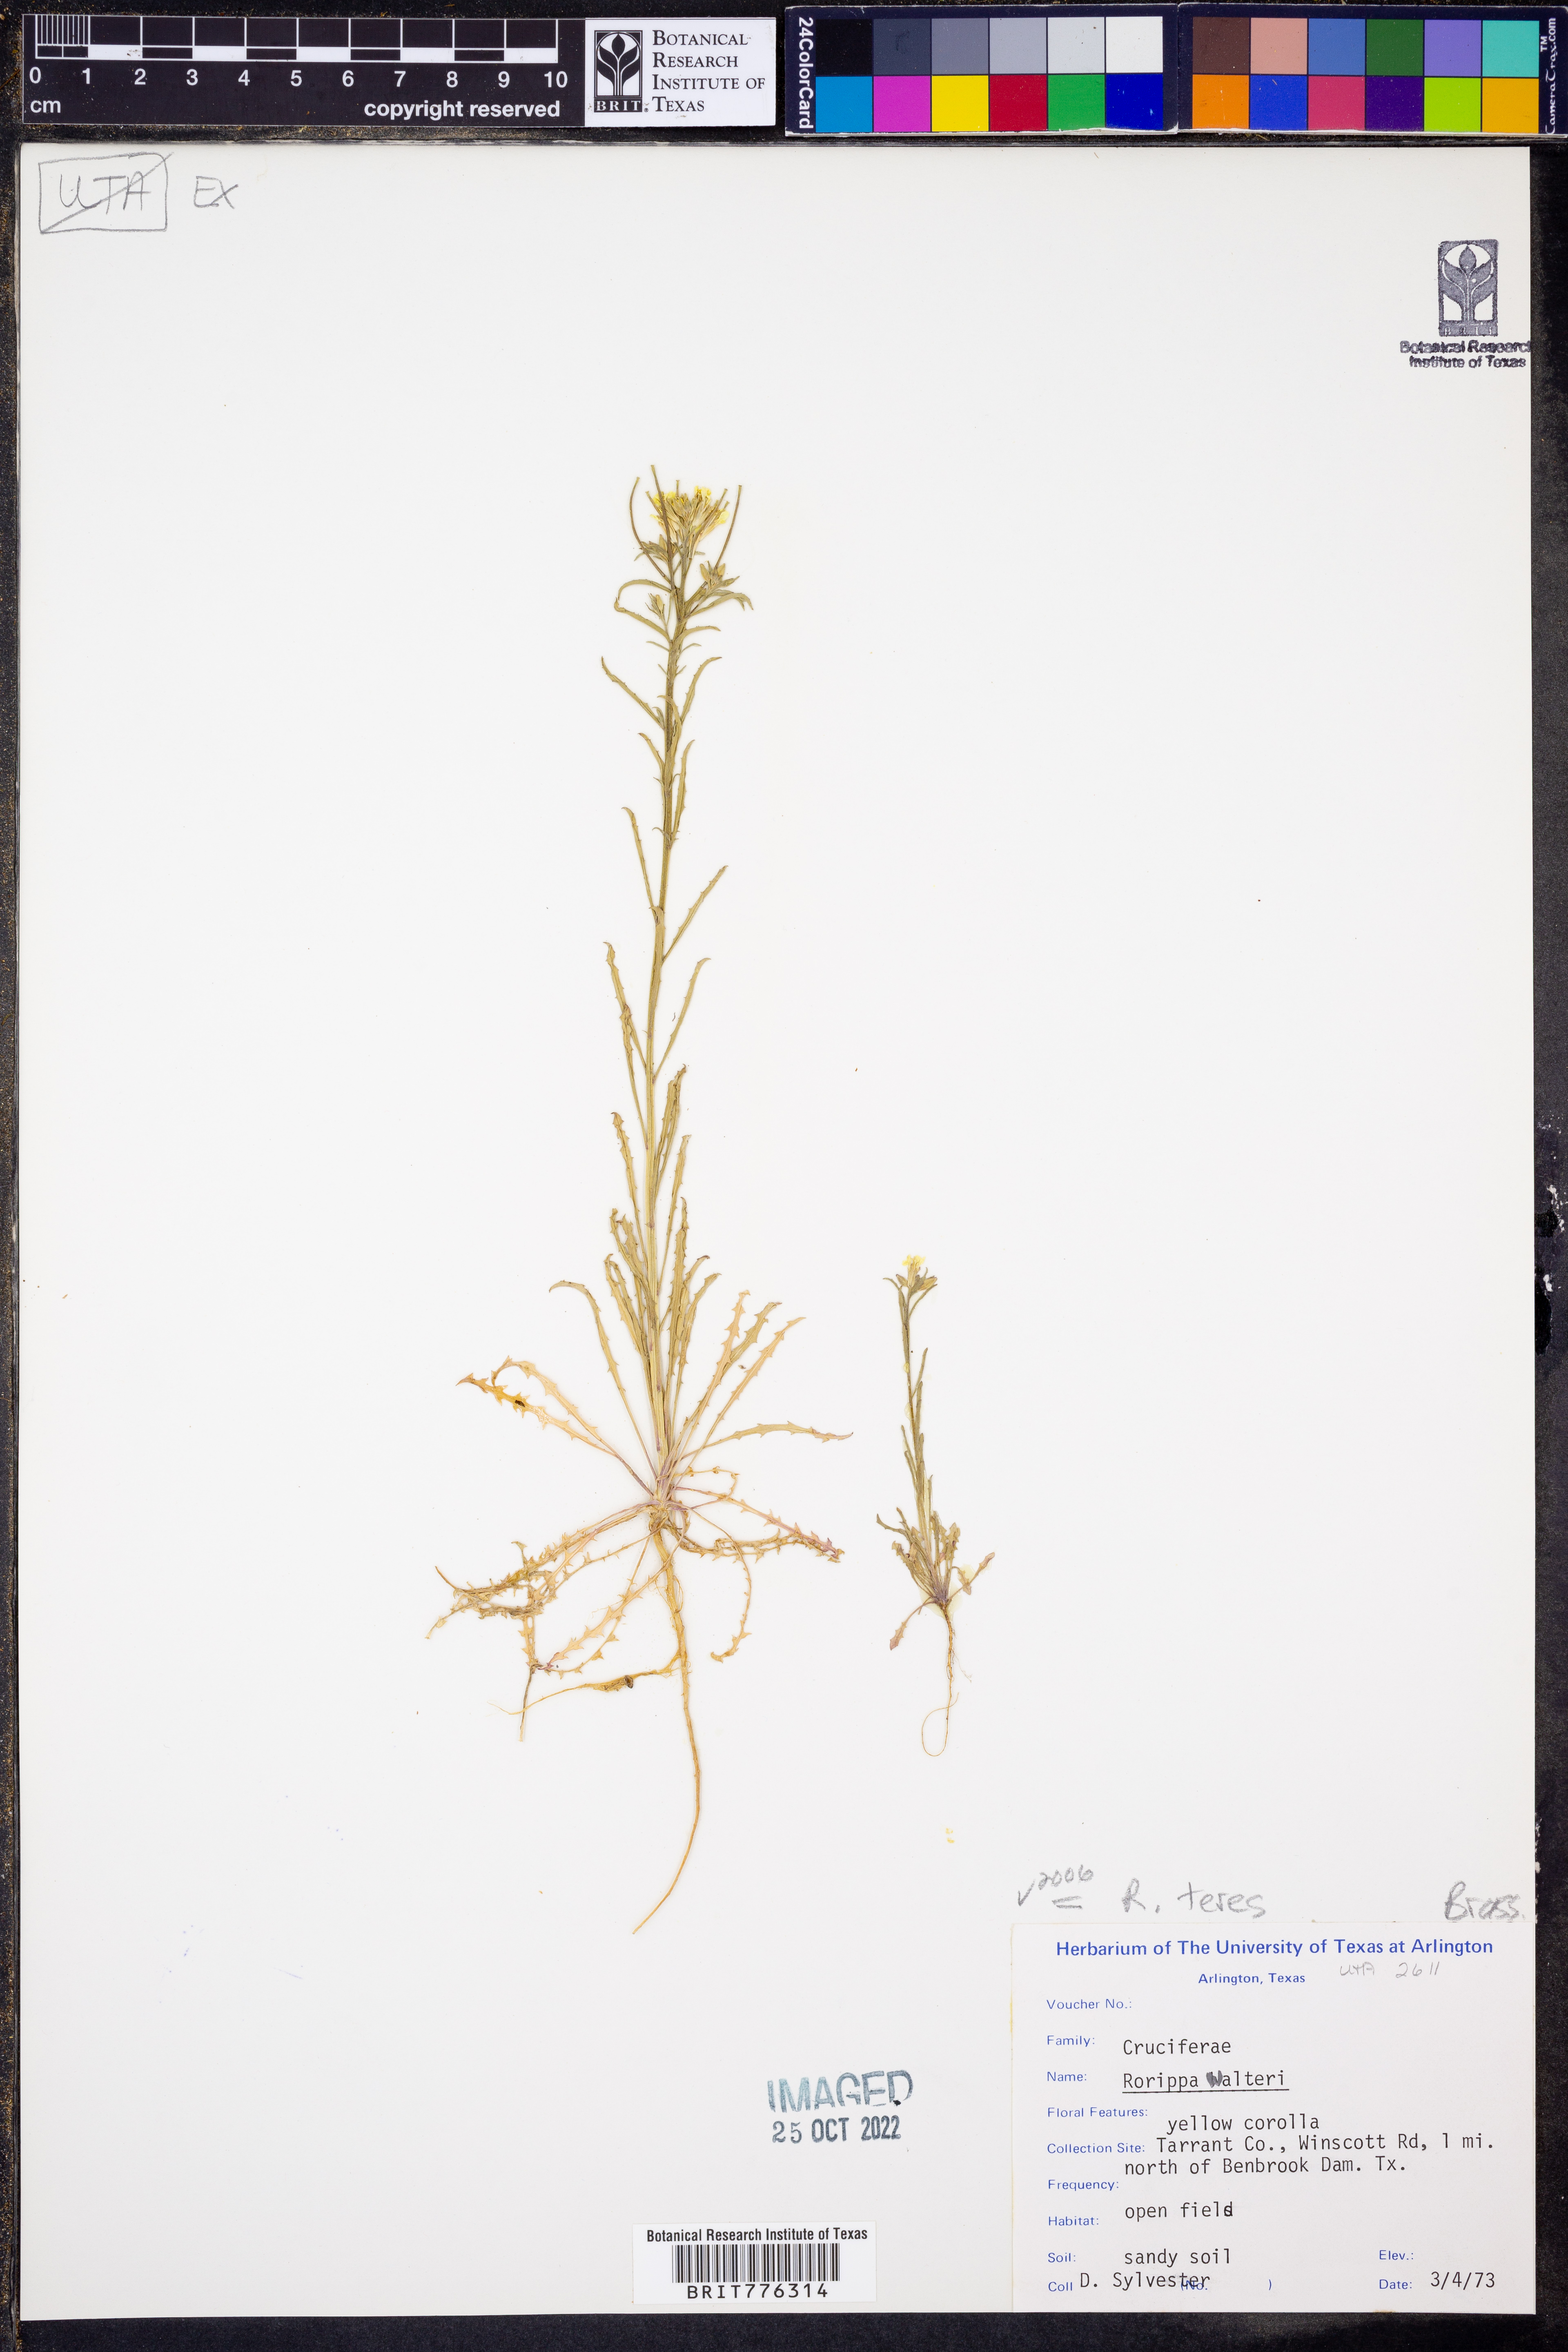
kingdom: Plantae
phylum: Tracheophyta
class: Magnoliopsida
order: Brassicales
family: Brassicaceae
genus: Rorippa
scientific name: Rorippa teres
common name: Southern marsh yellowcress
